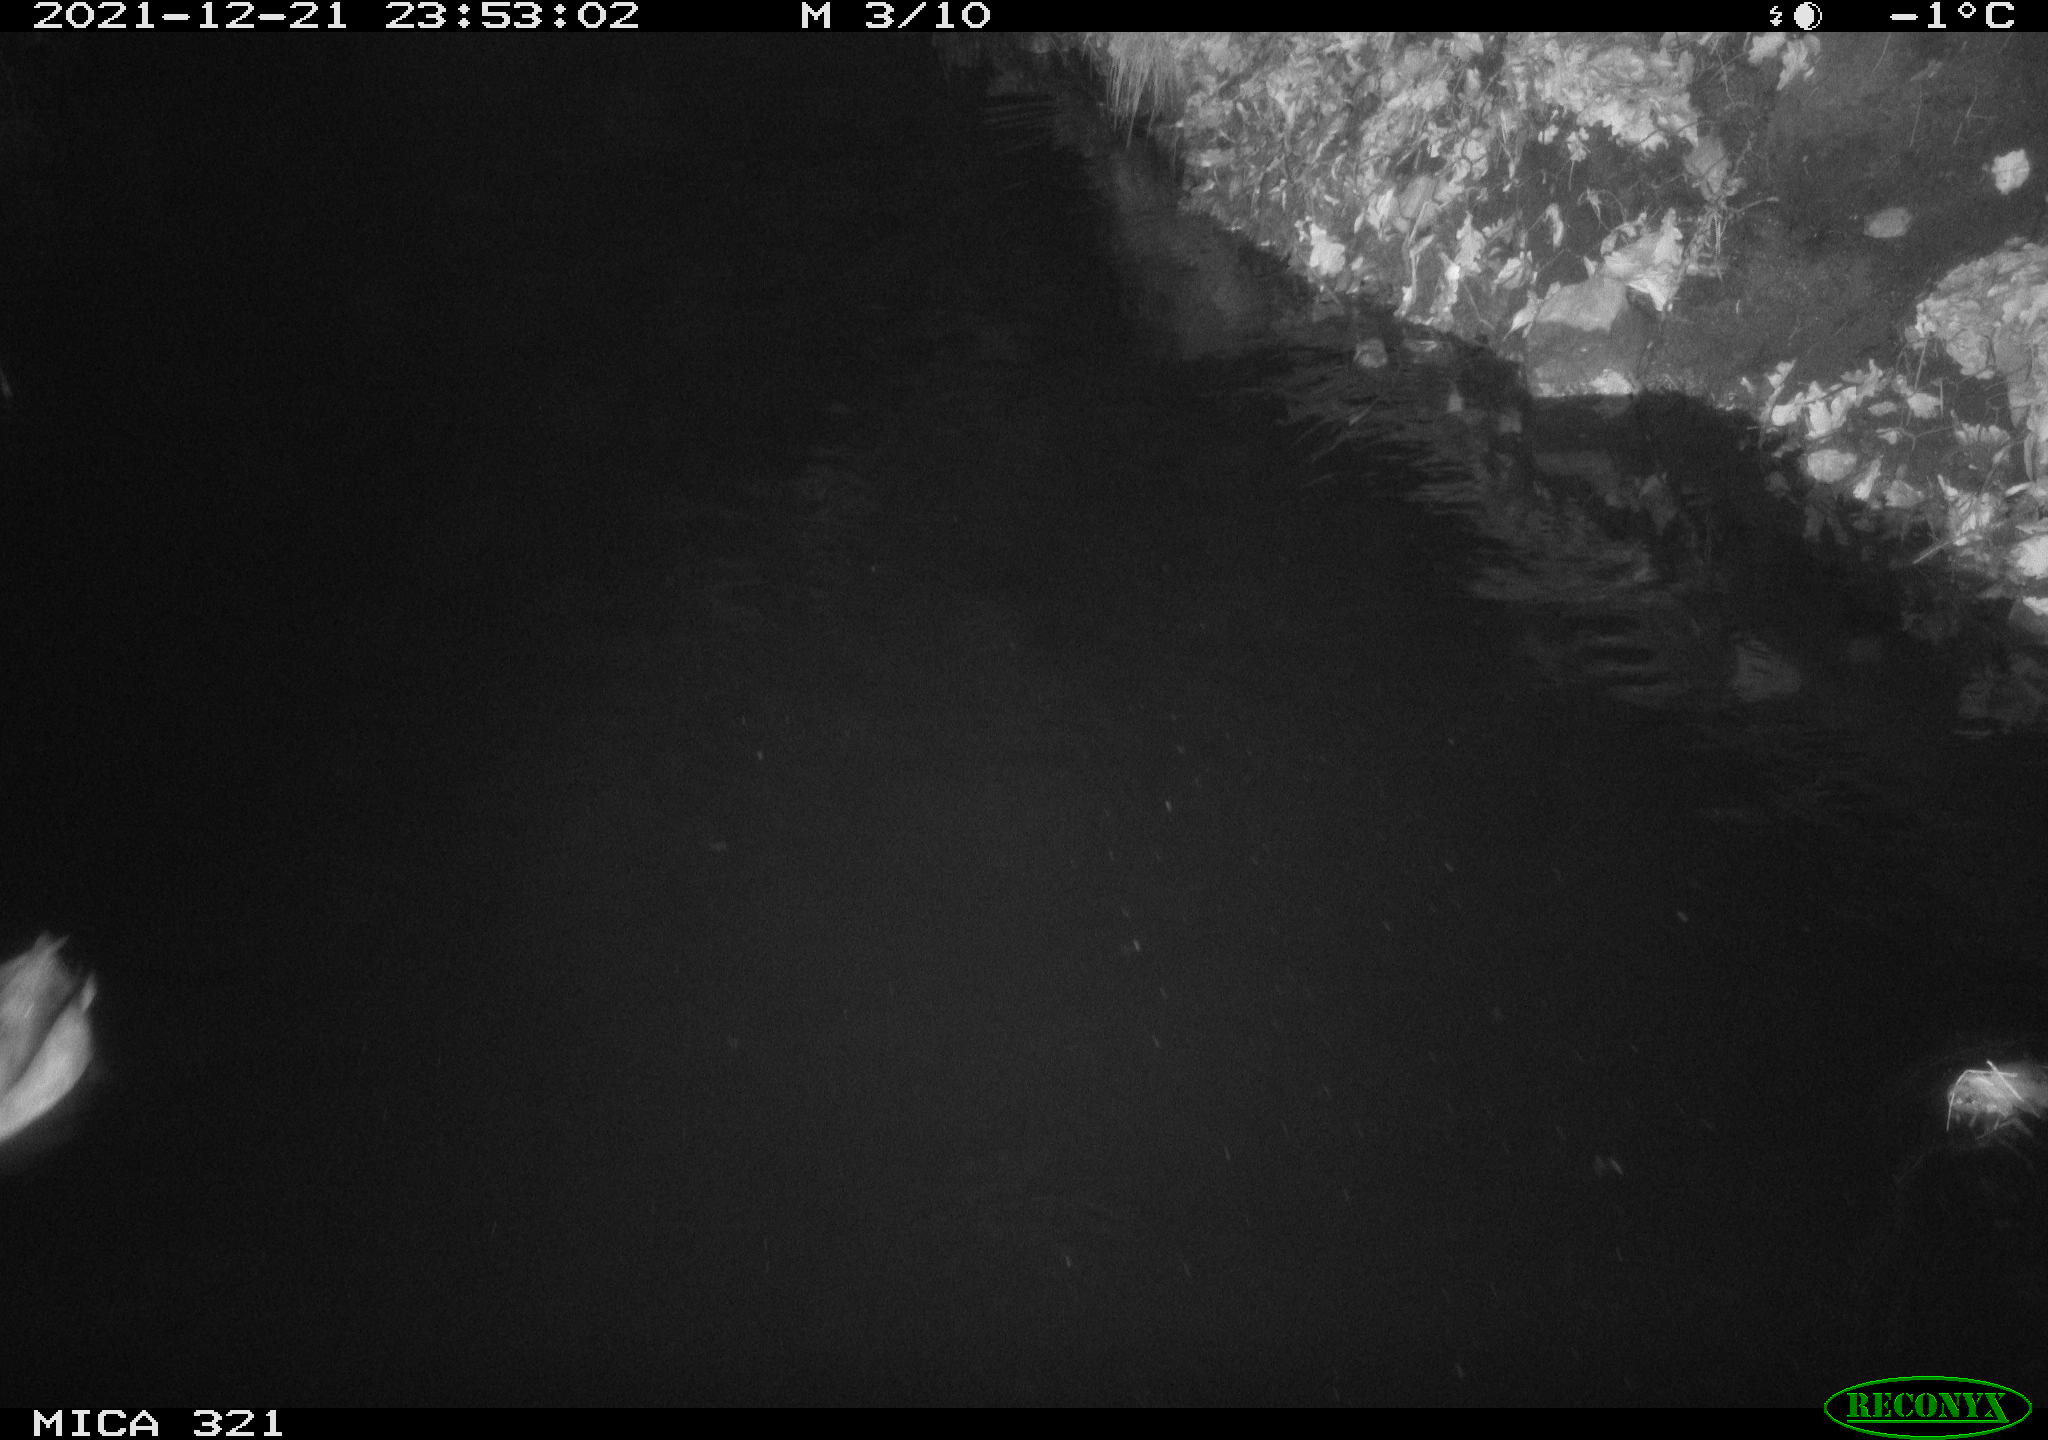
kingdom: Animalia
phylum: Chordata
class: Aves
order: Anseriformes
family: Anatidae
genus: Anas
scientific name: Anas
